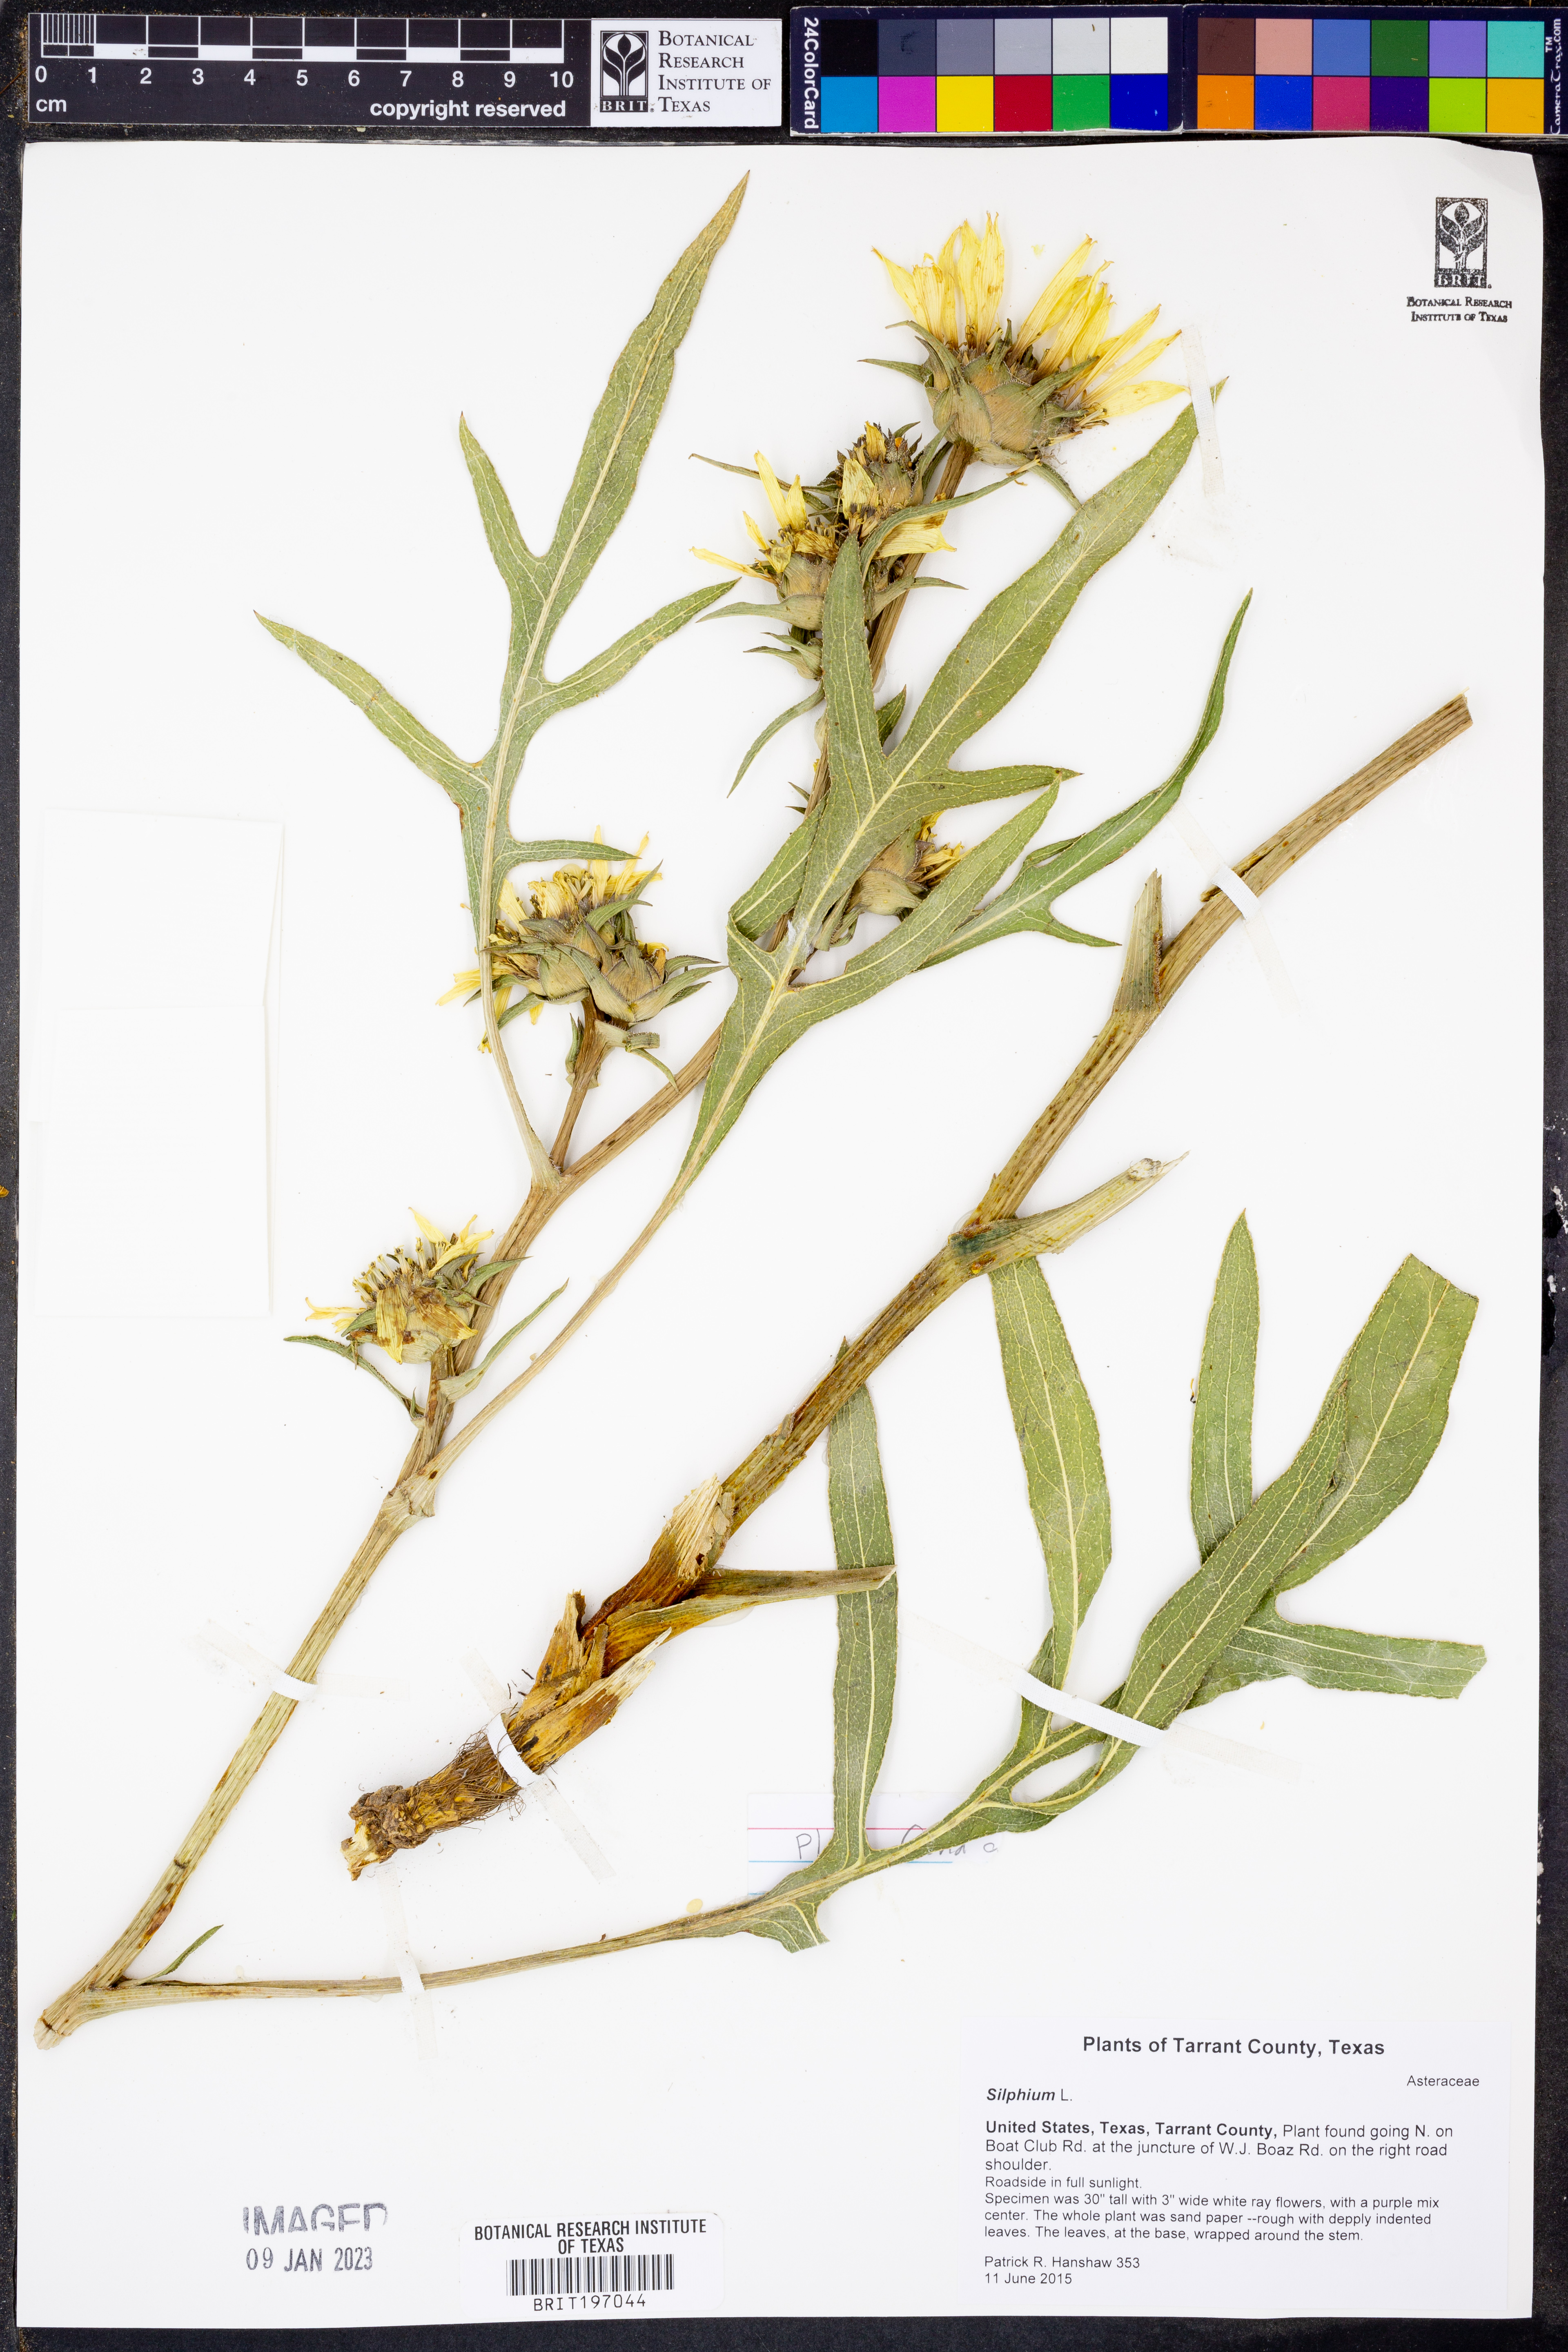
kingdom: Plantae
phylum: Tracheophyta
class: Magnoliopsida
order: Asterales
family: Asteraceae
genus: Silphium
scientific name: Silphium
